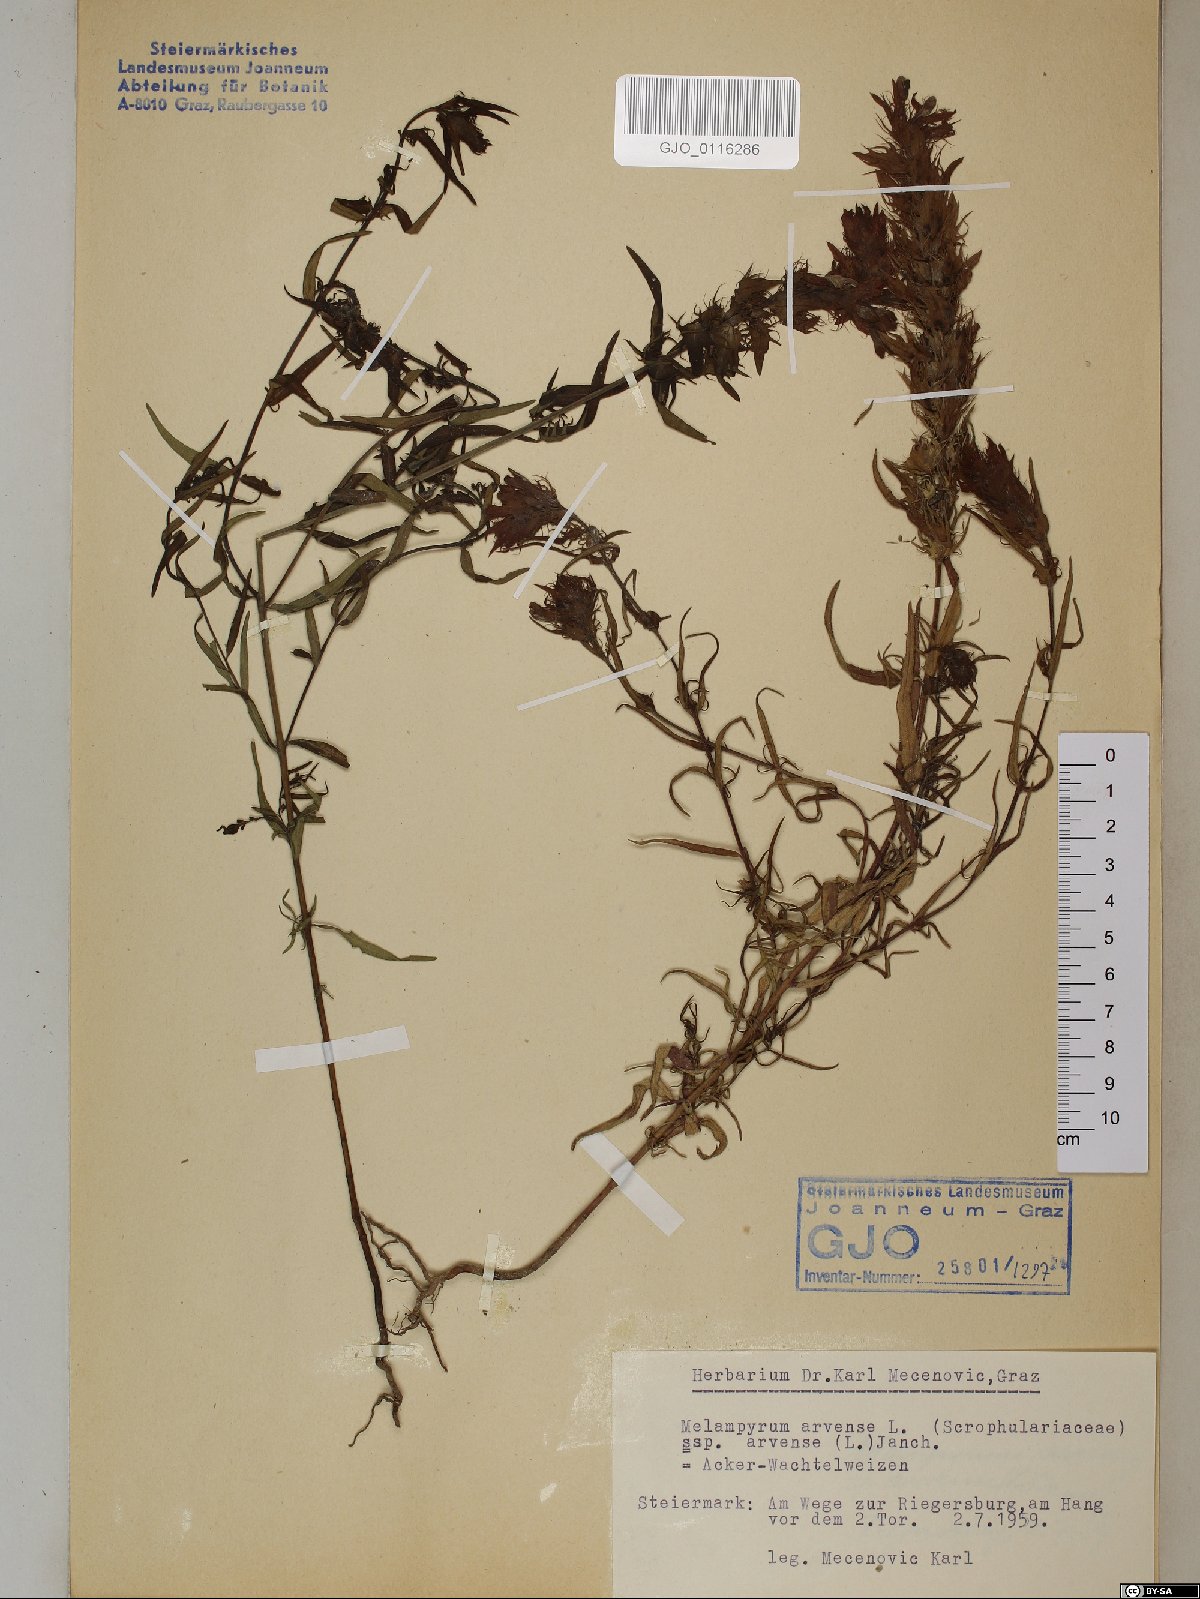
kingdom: Plantae
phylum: Tracheophyta
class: Magnoliopsida
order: Lamiales
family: Orobanchaceae
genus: Melampyrum
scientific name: Melampyrum arvense
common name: Field cow-wheat
